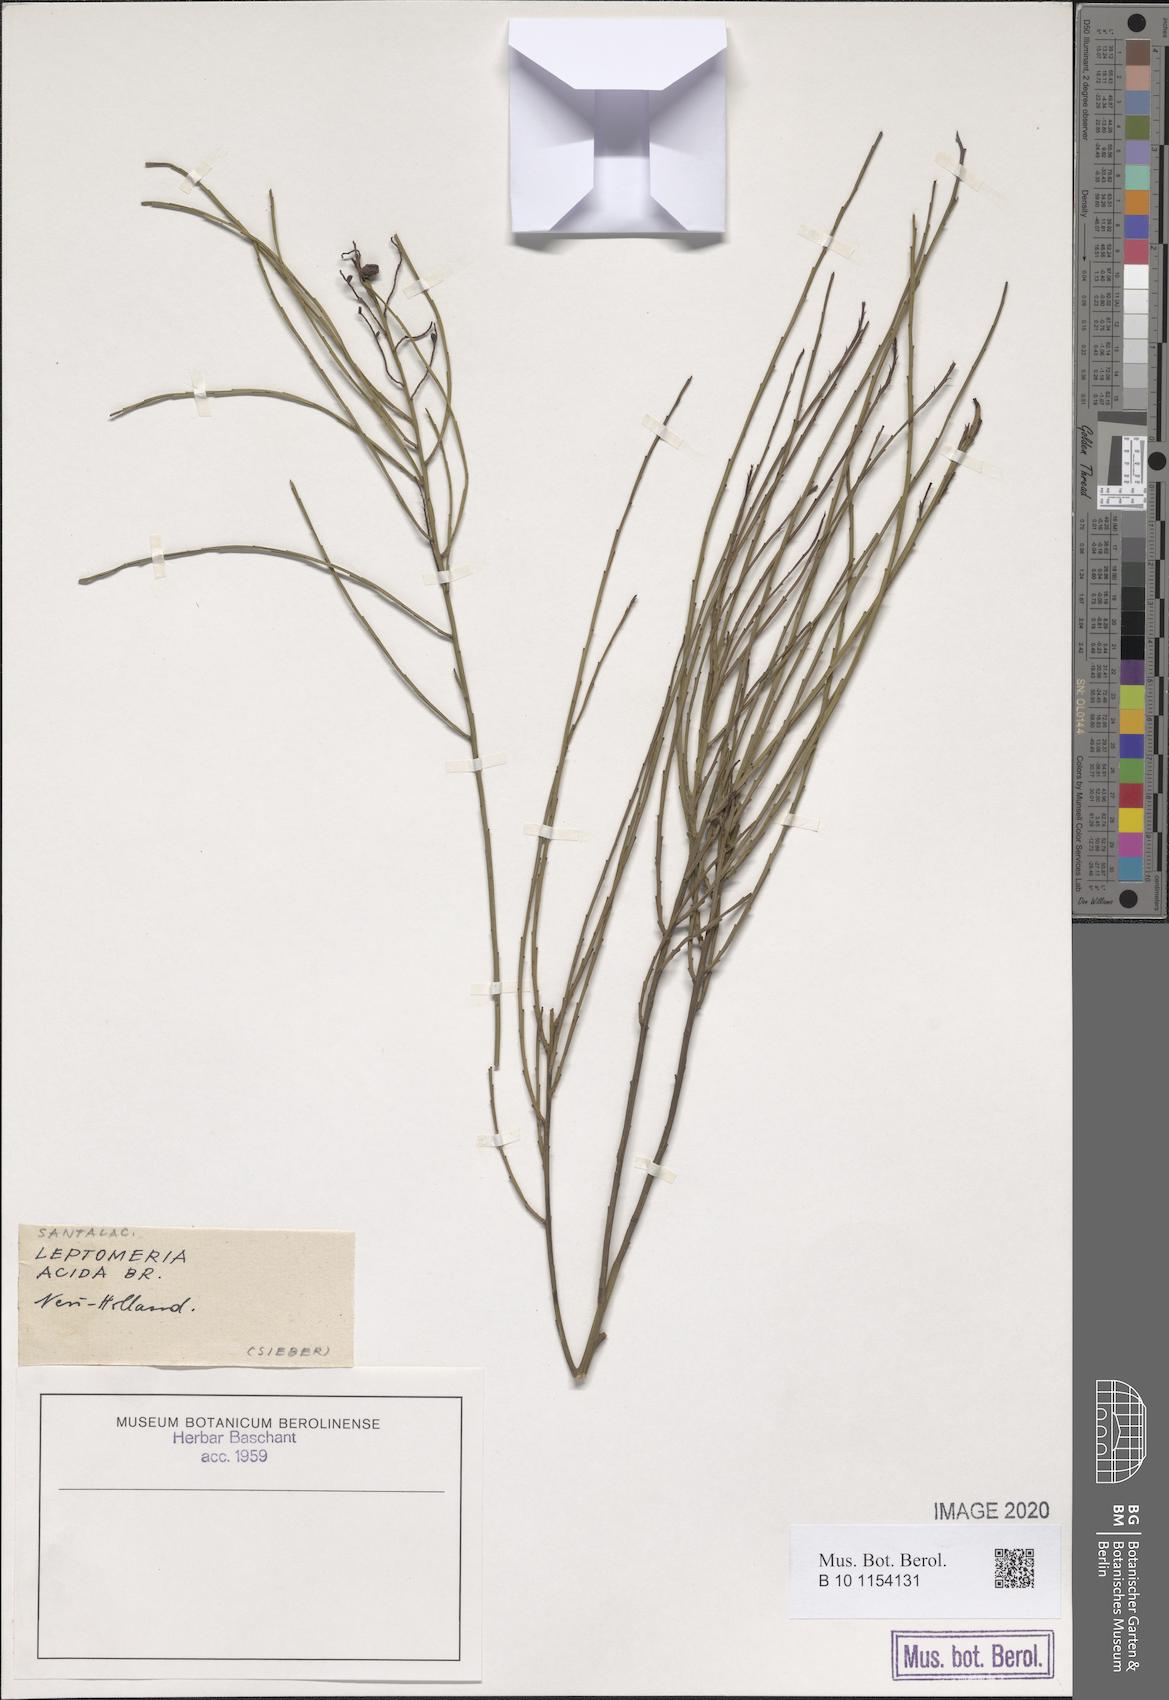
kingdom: Plantae
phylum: Tracheophyta
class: Magnoliopsida
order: Santalales
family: Amphorogynaceae
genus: Leptomeria
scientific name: Leptomeria acida
